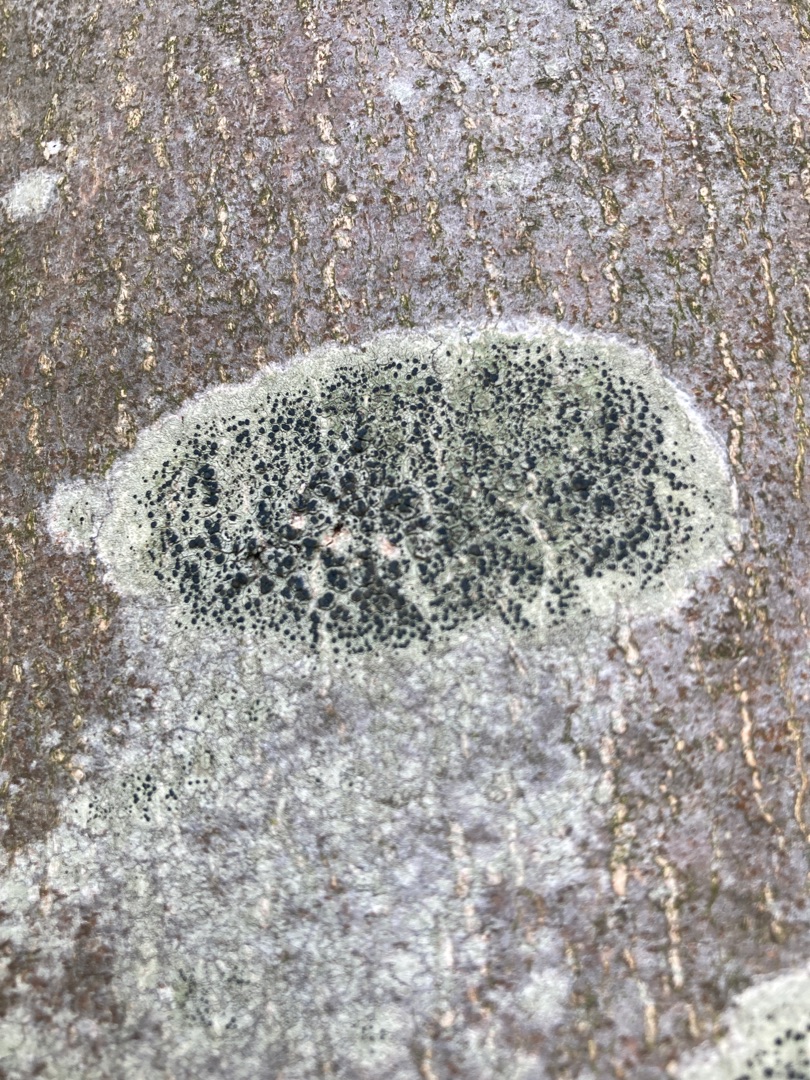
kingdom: Fungi
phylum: Ascomycota
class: Lecanoromycetes
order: Lecanorales
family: Lecanoraceae
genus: Lecidella
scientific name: Lecidella elaeochroma
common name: Grågrøn skivelav
